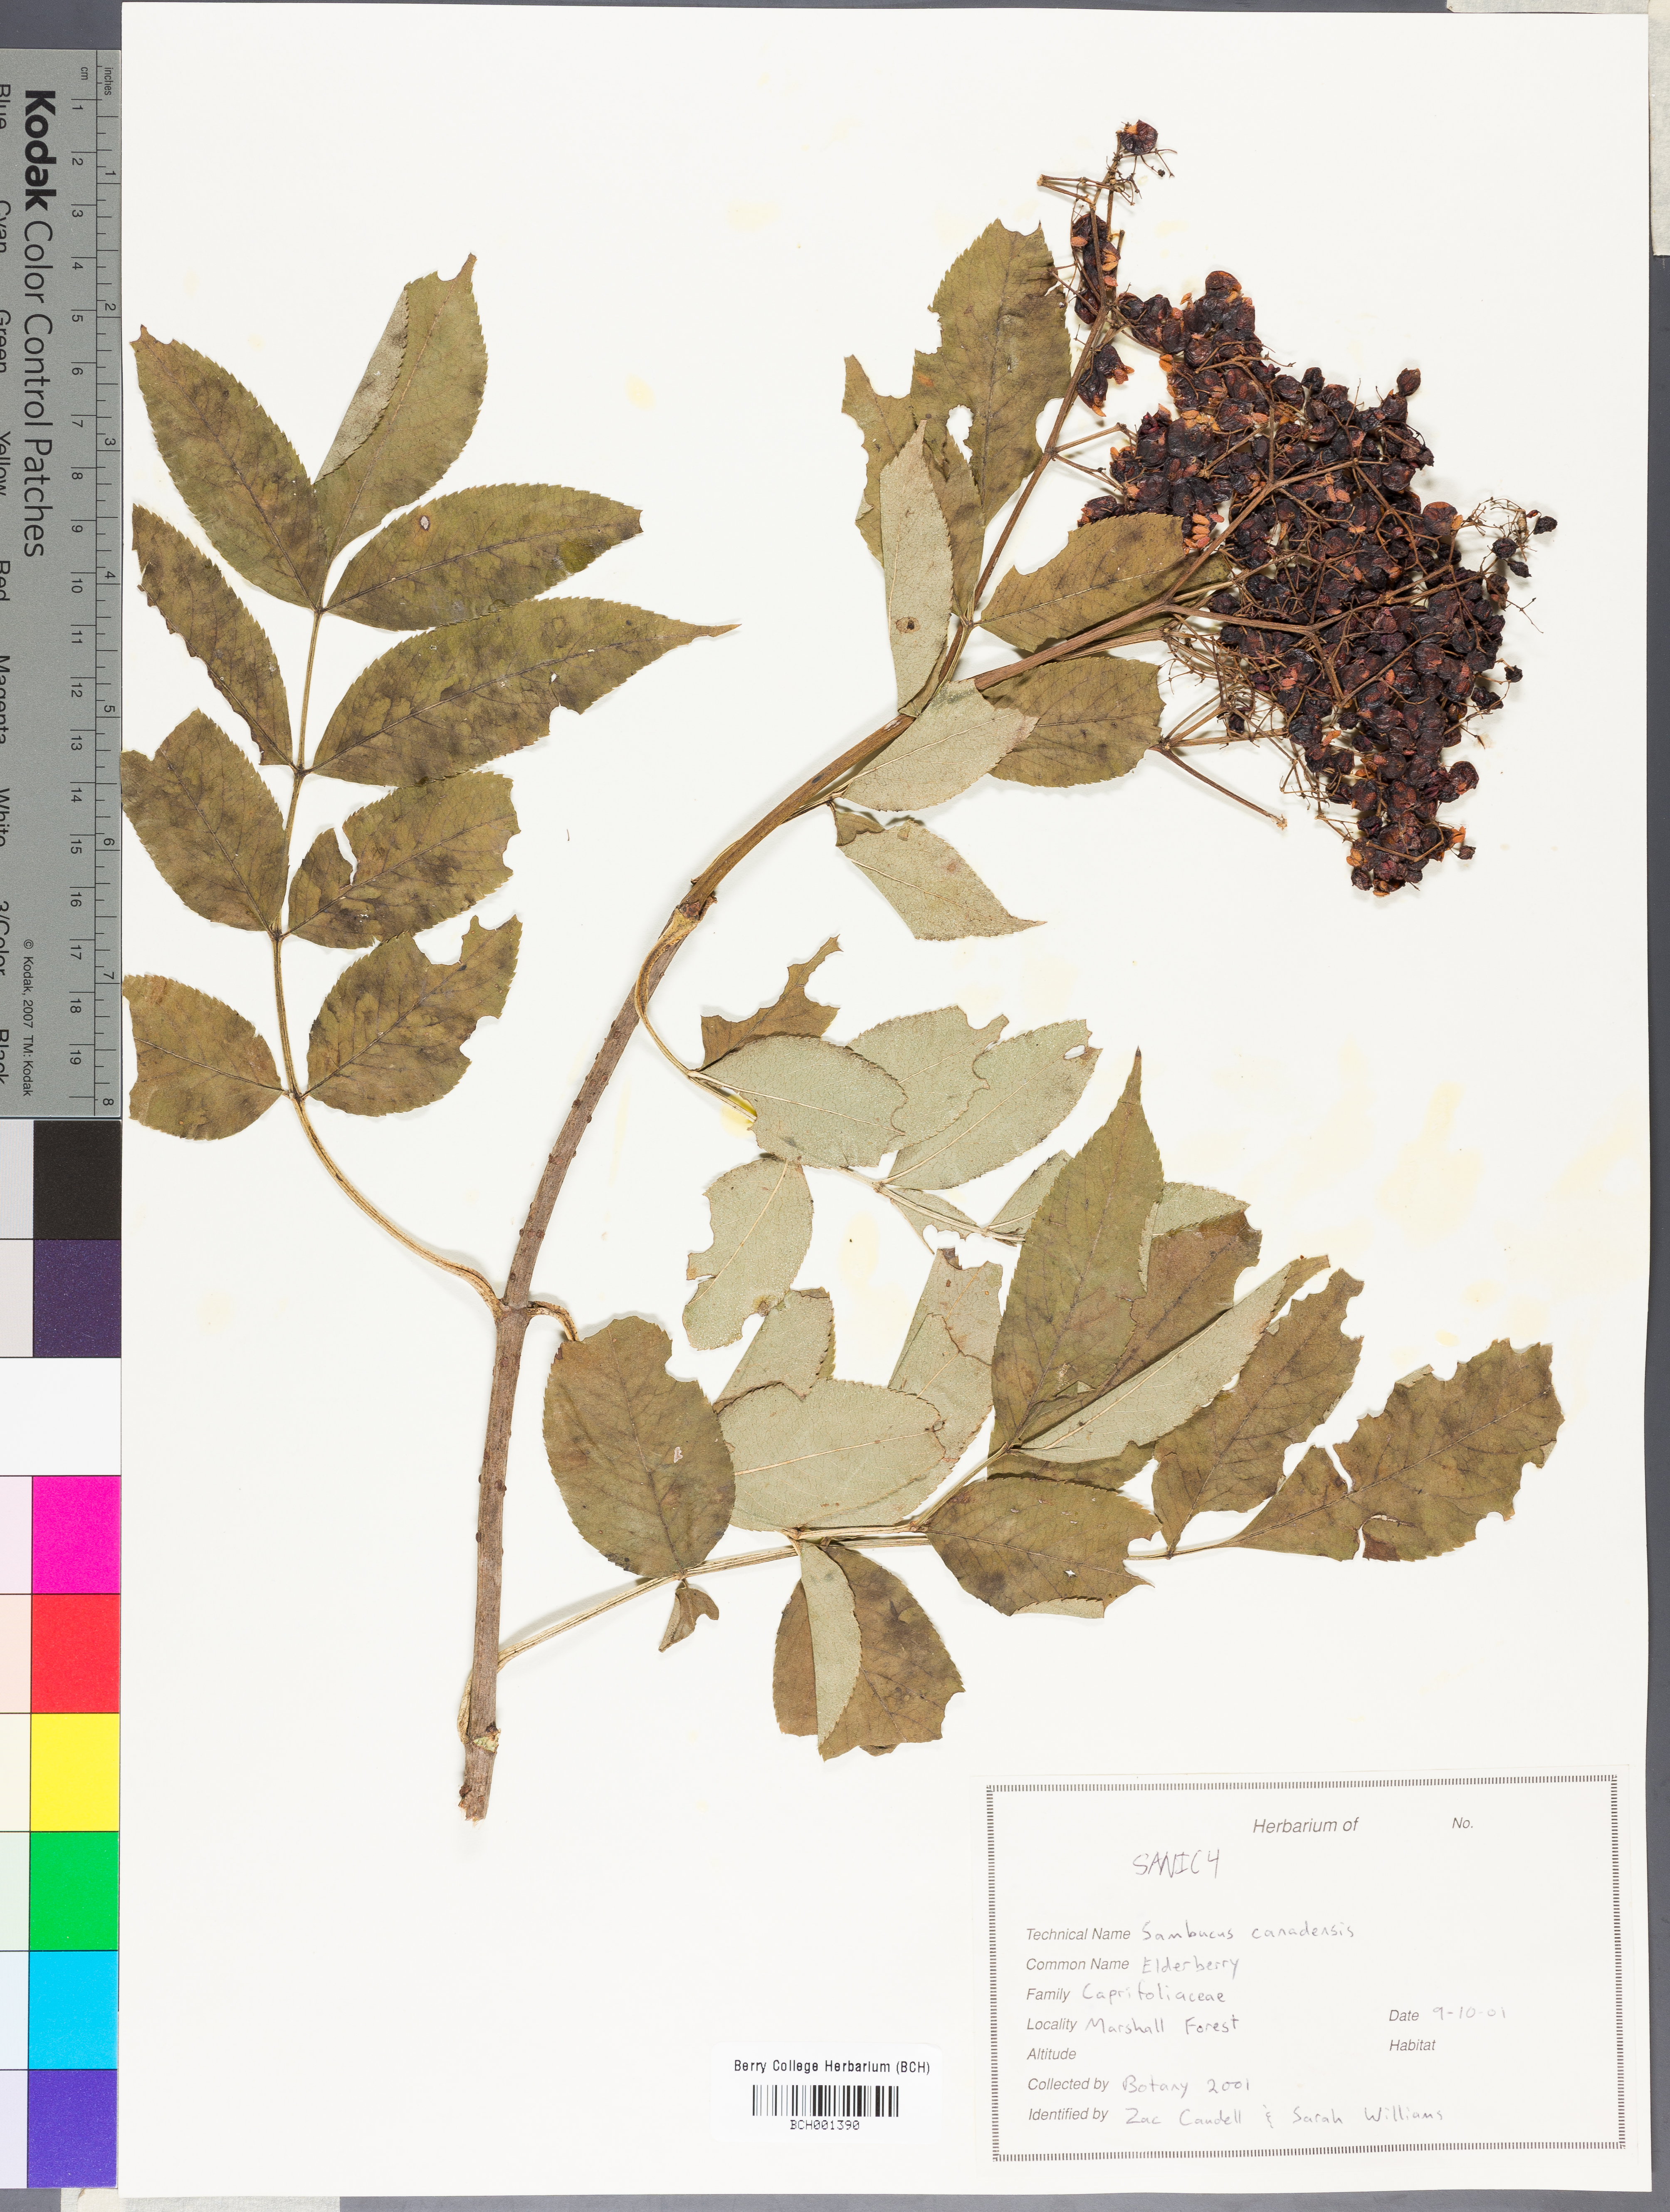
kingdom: Plantae
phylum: Tracheophyta
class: Magnoliopsida
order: Dipsacales
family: Viburnaceae
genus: Sambucus
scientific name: Sambucus canadensis
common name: American elder
